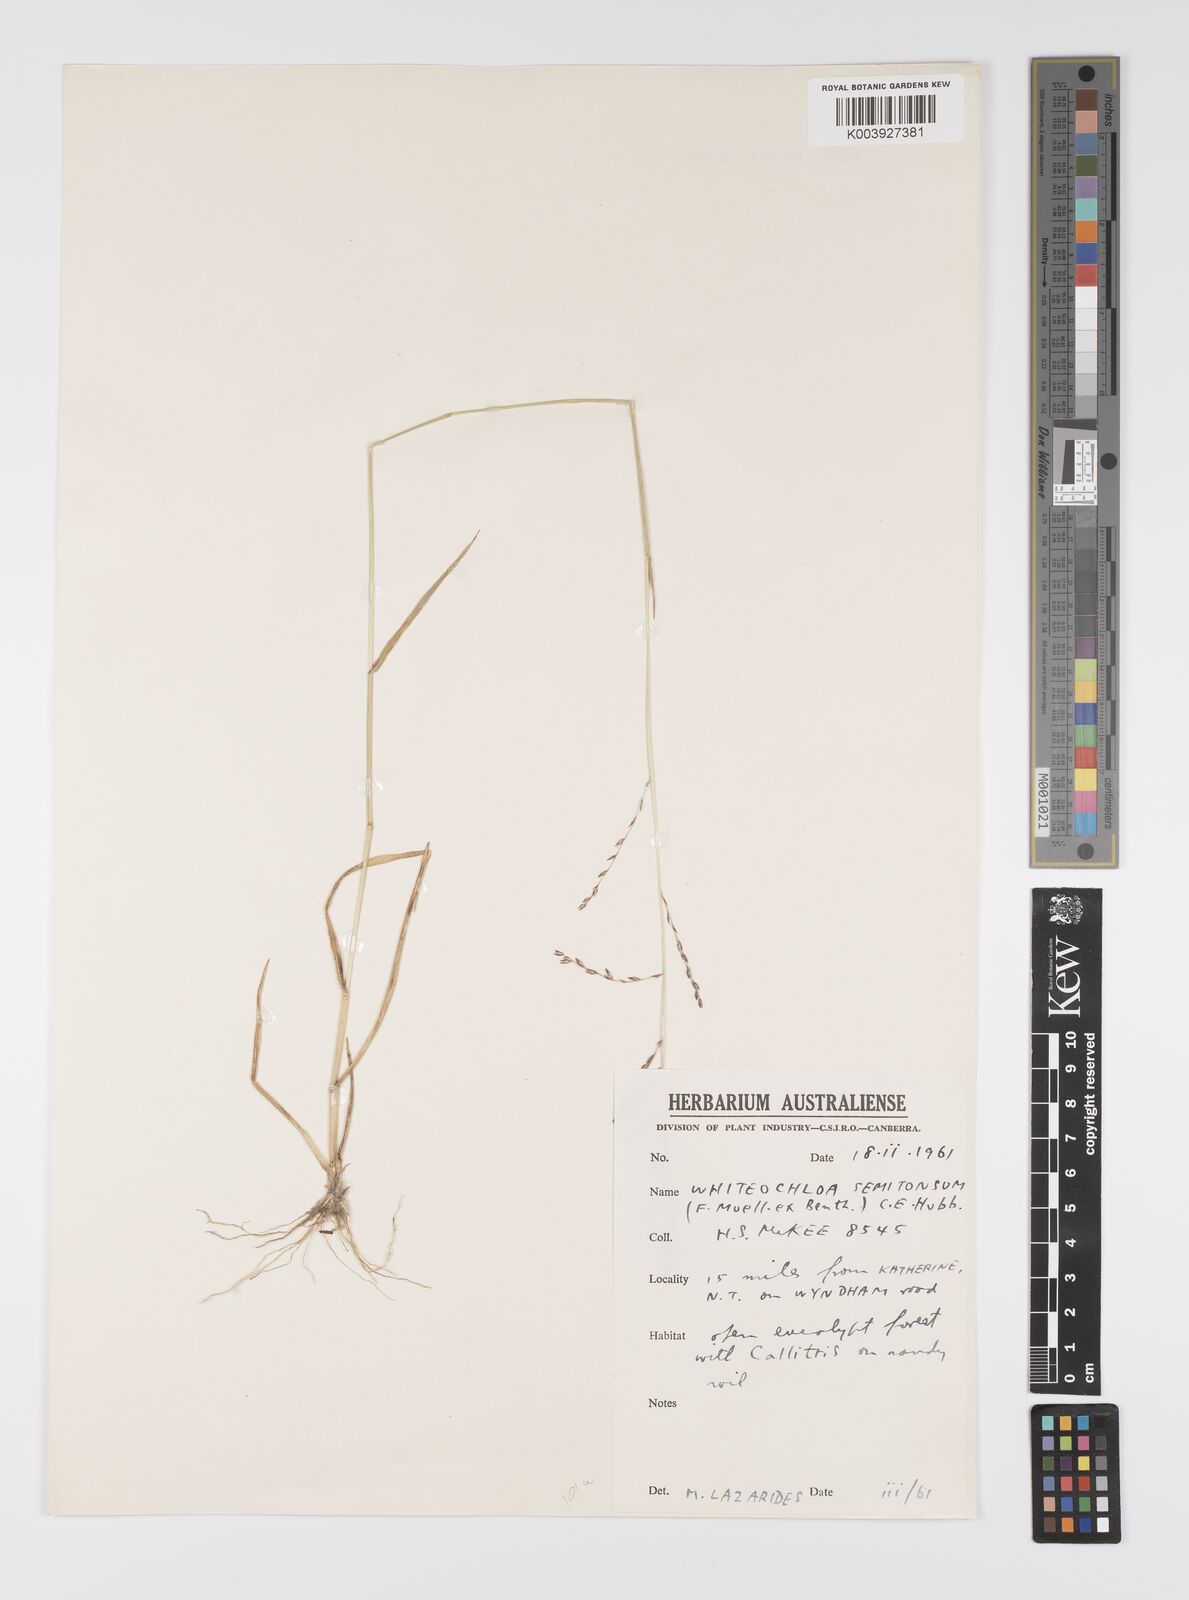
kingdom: Plantae
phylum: Tracheophyta
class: Liliopsida
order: Poales
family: Poaceae
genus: Whiteochloa
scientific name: Whiteochloa semitonsa
